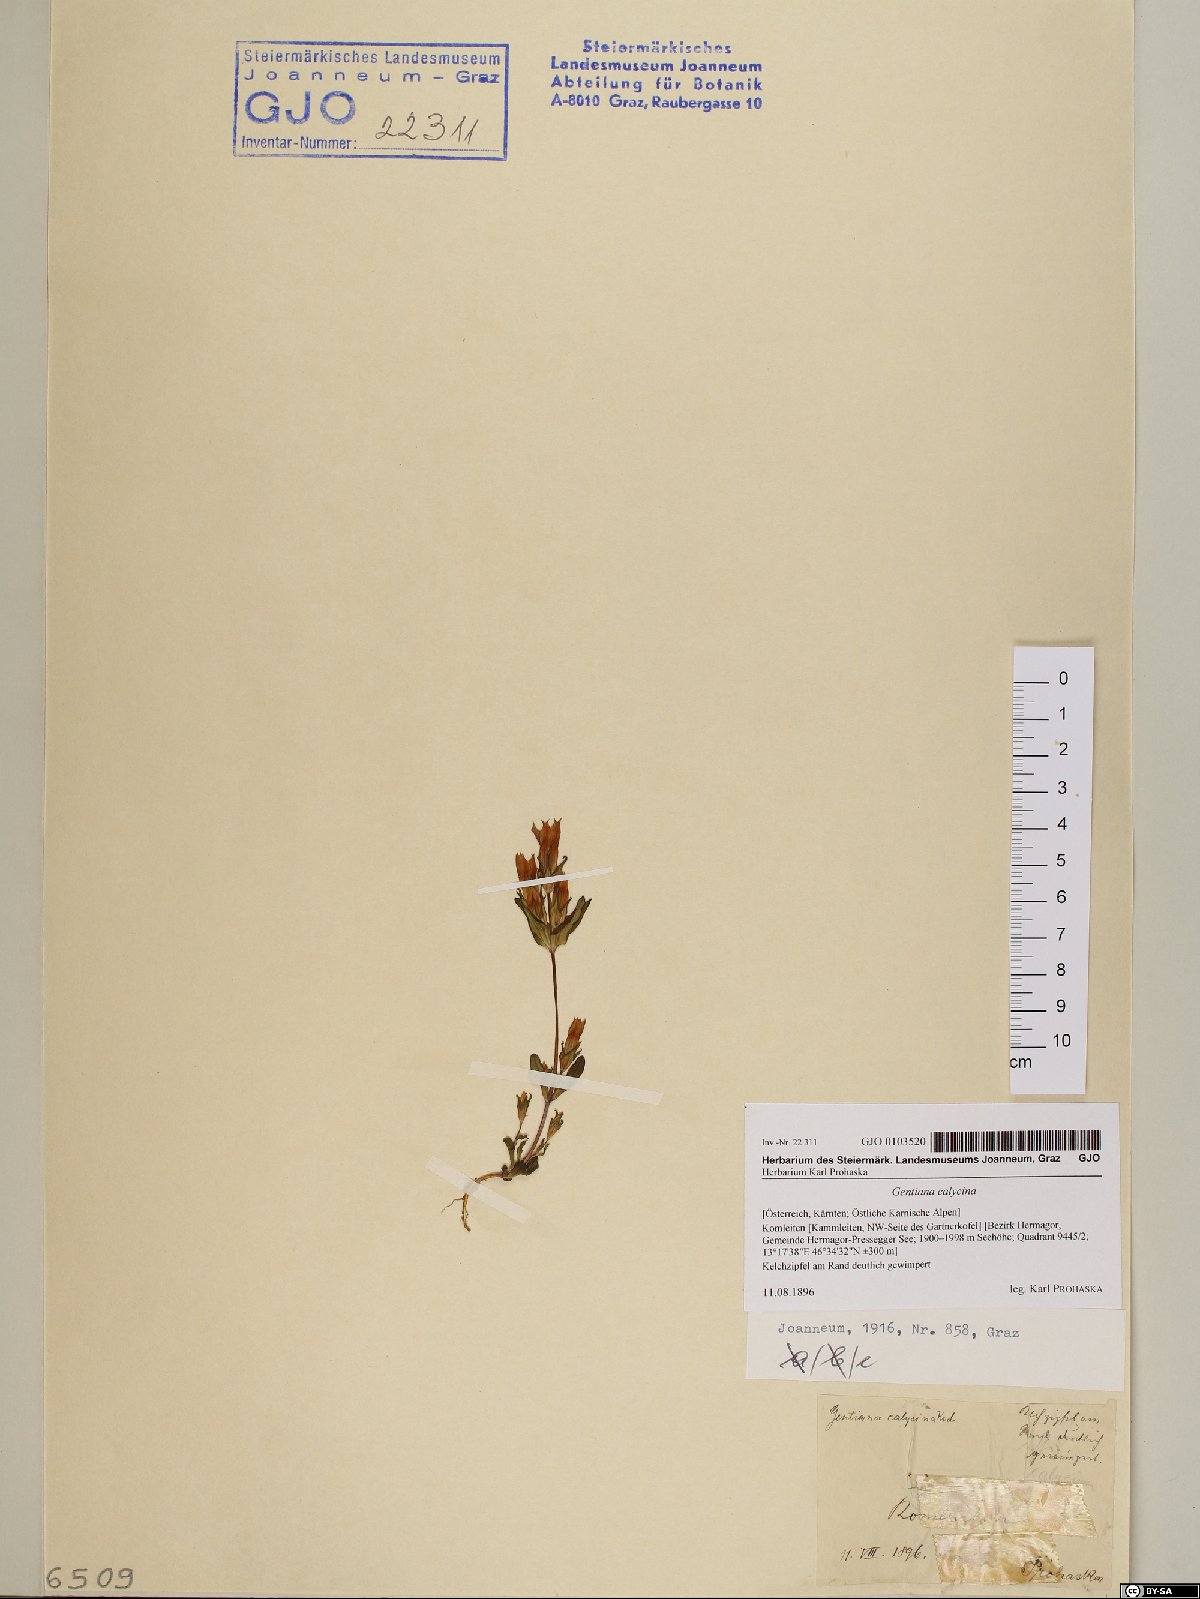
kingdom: Plantae
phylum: Tracheophyta
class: Magnoliopsida
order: Gentianales
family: Gentianaceae
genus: Gentianella
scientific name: Gentianella germanica
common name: Chiltern-gentian
